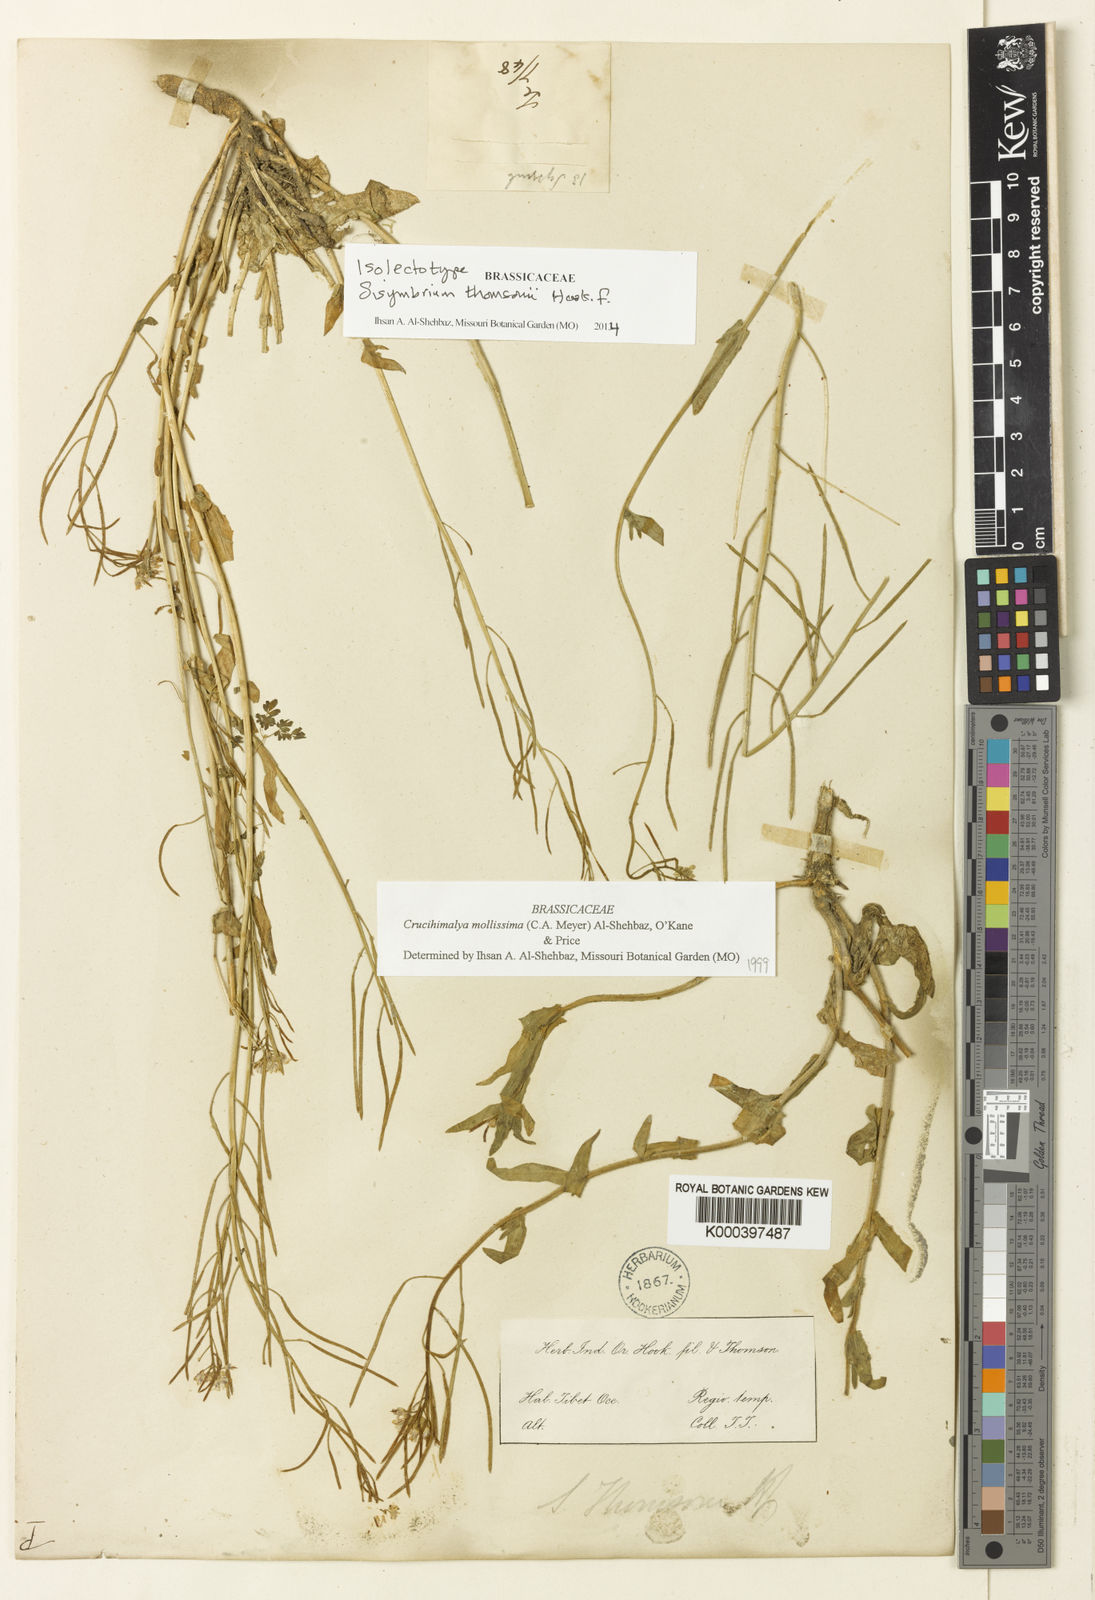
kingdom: Plantae
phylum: Tracheophyta
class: Magnoliopsida
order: Brassicales
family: Brassicaceae
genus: Crucihimalaya
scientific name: Crucihimalaya mollissima
